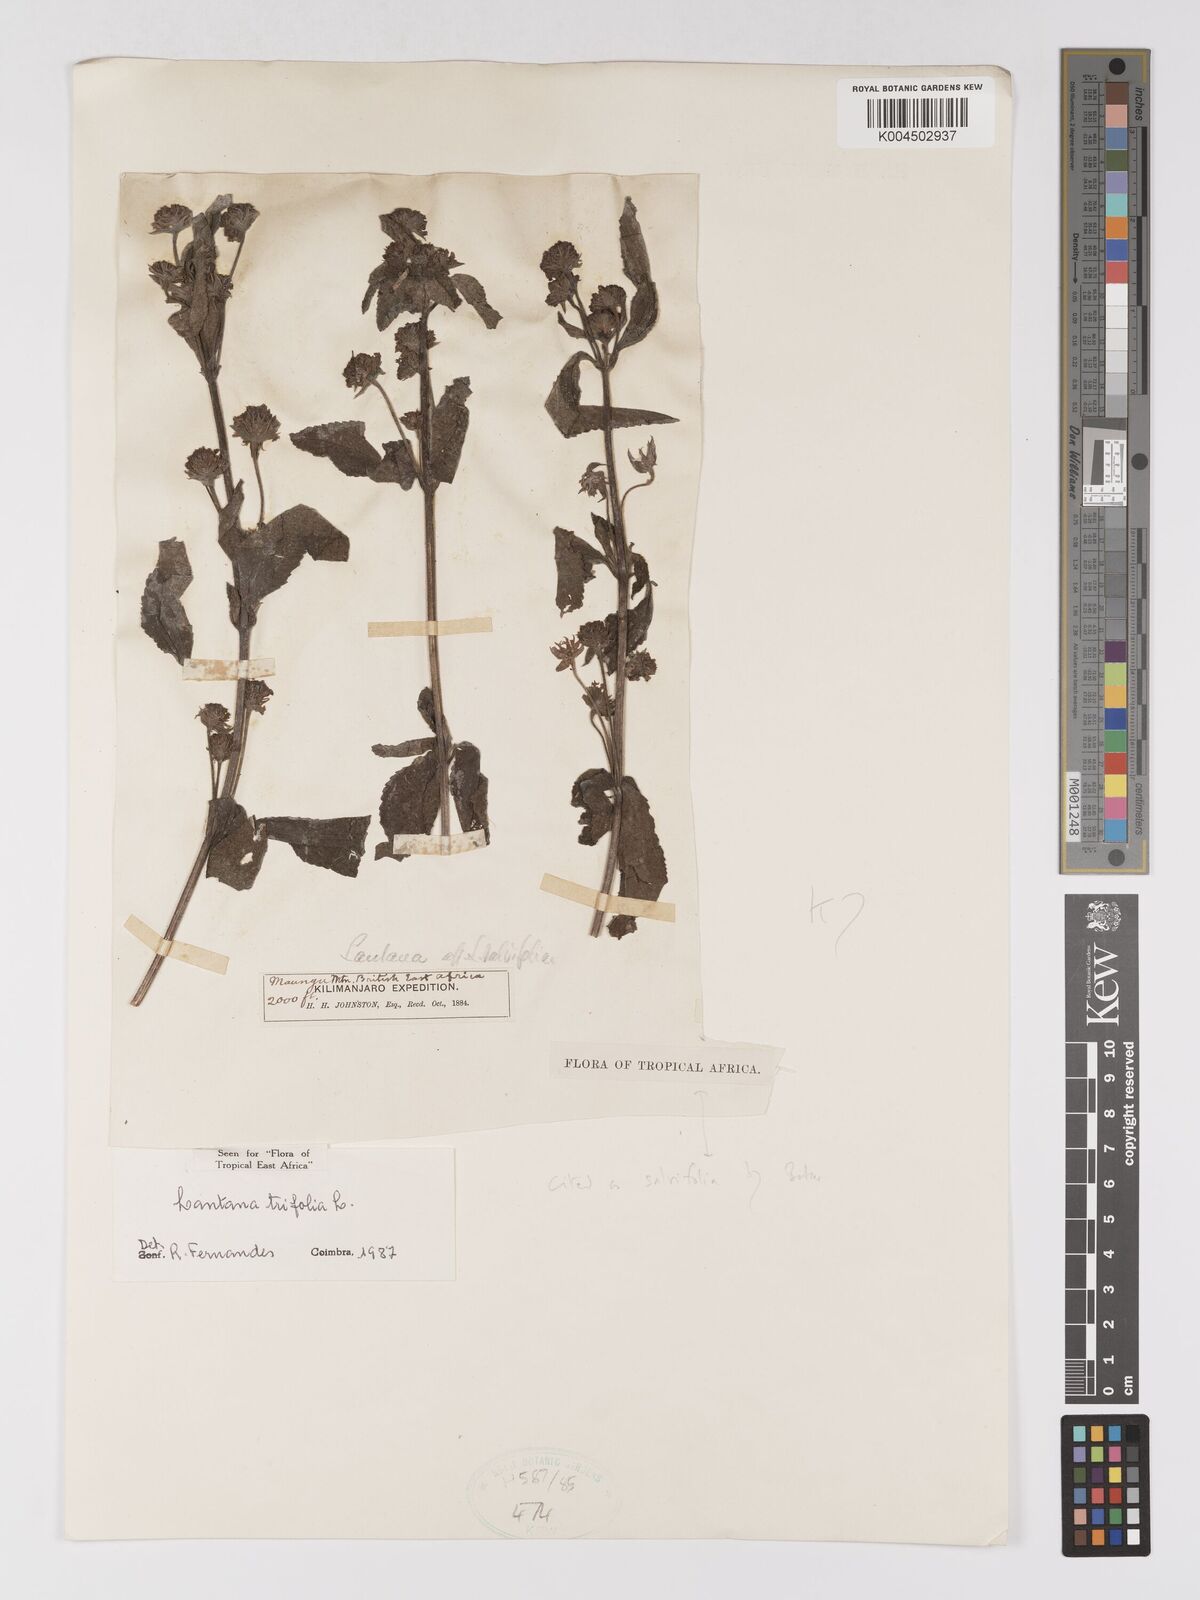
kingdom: Plantae
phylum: Tracheophyta
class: Magnoliopsida
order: Lamiales
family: Verbenaceae
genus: Lantana
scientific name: Lantana trifolia
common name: Sweet-sage
